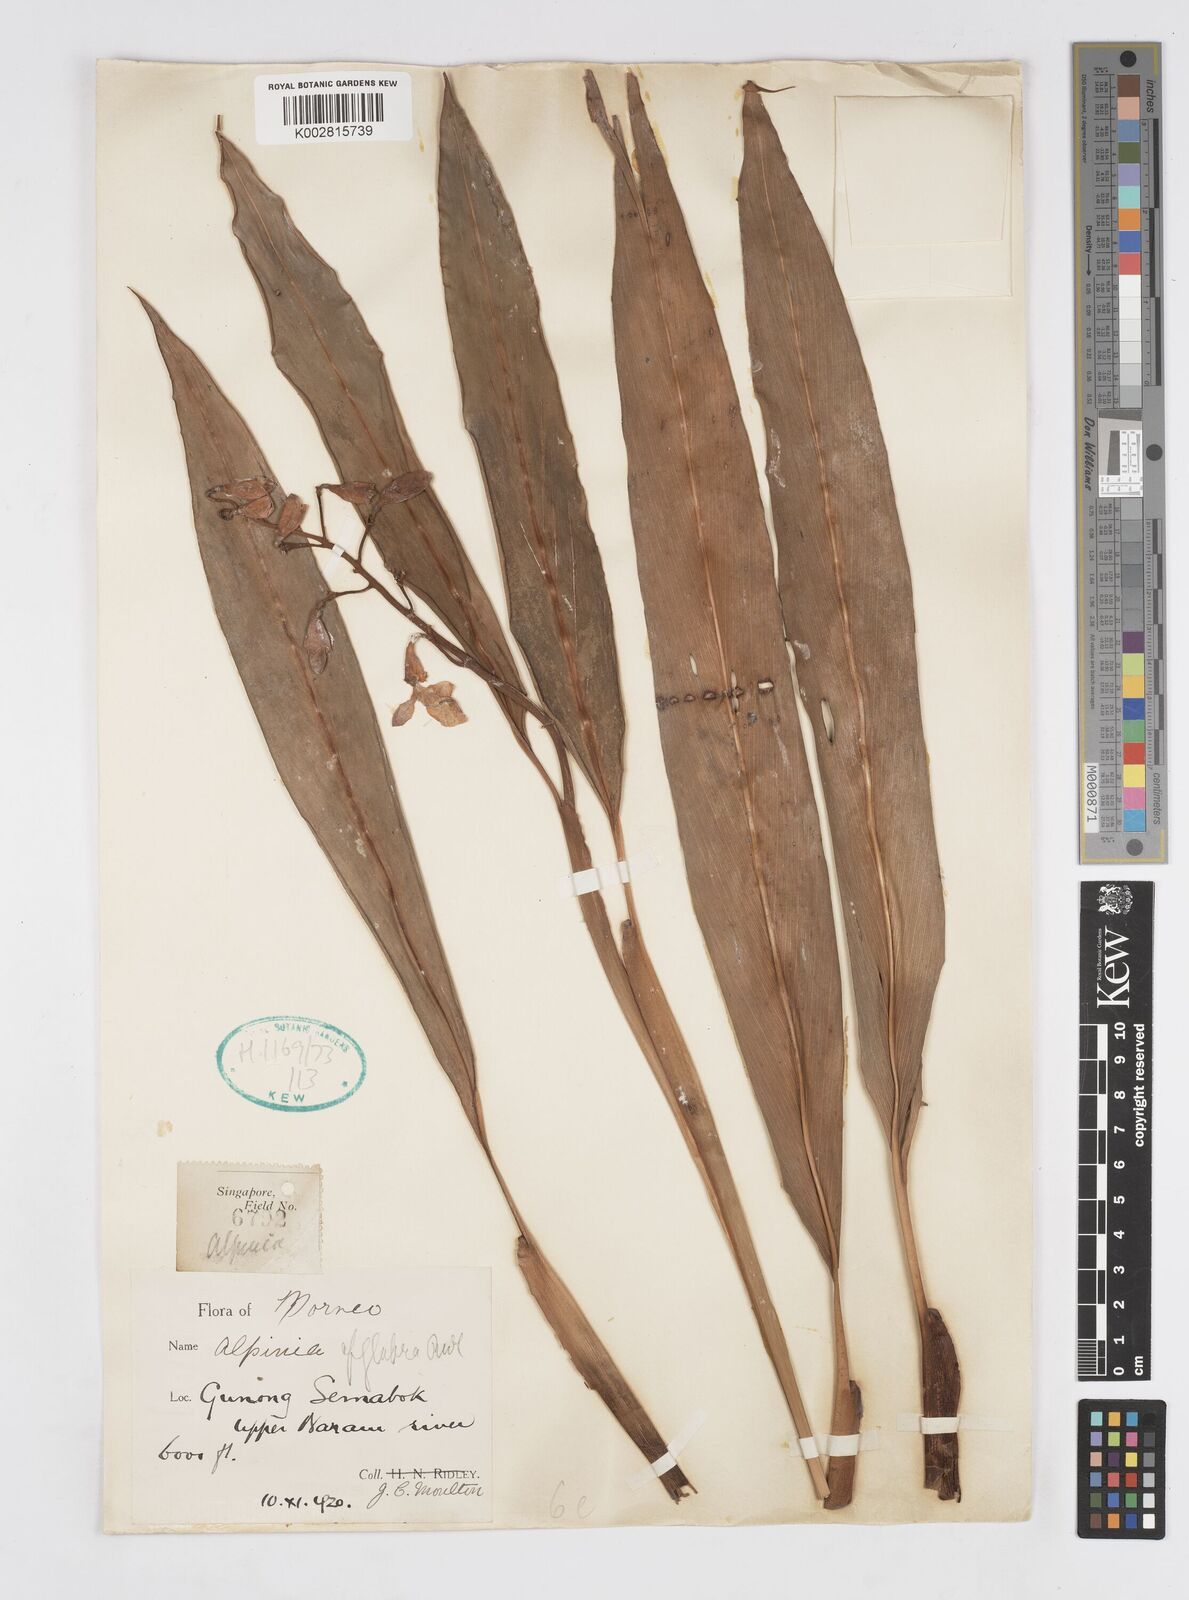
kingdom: Plantae
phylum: Tracheophyta
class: Liliopsida
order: Zingiberales
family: Zingiberaceae
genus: Alpinia
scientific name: Alpinia glabra
